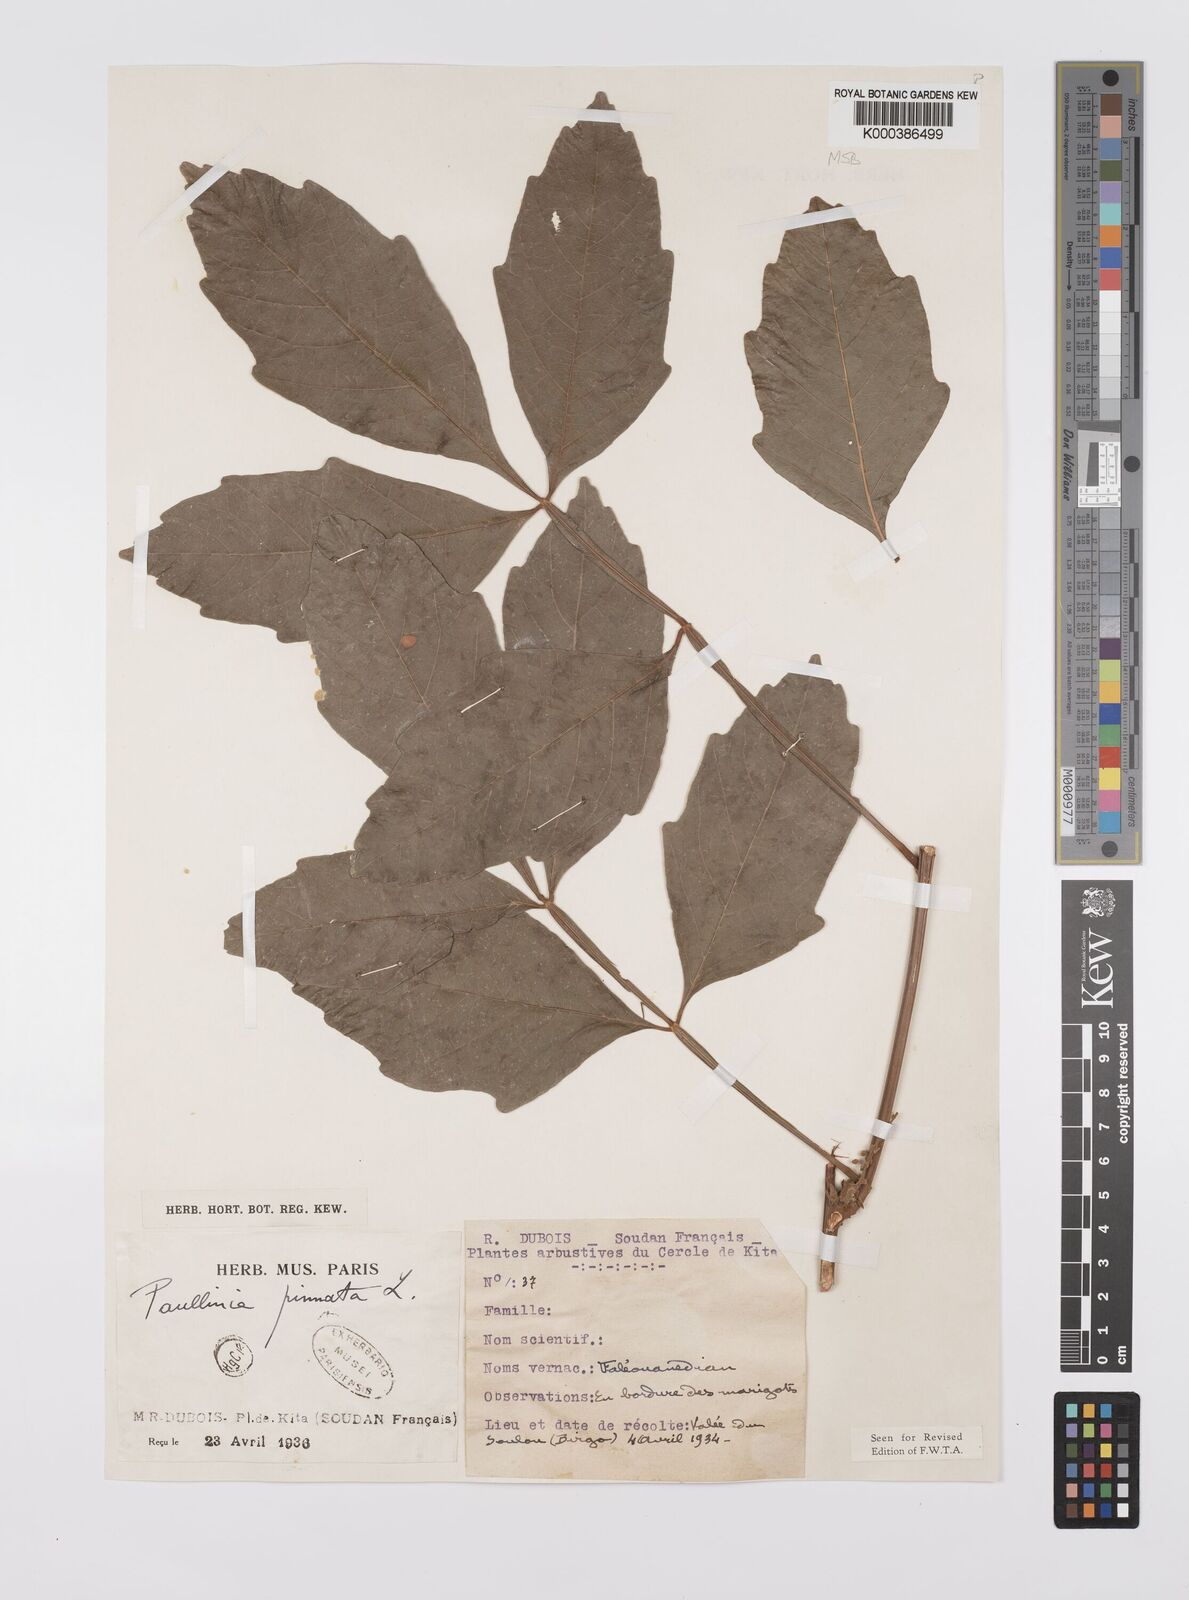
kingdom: Plantae
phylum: Tracheophyta
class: Magnoliopsida
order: Sapindales
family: Sapindaceae
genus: Paullinia
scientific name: Paullinia pinnata
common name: Barbasco
